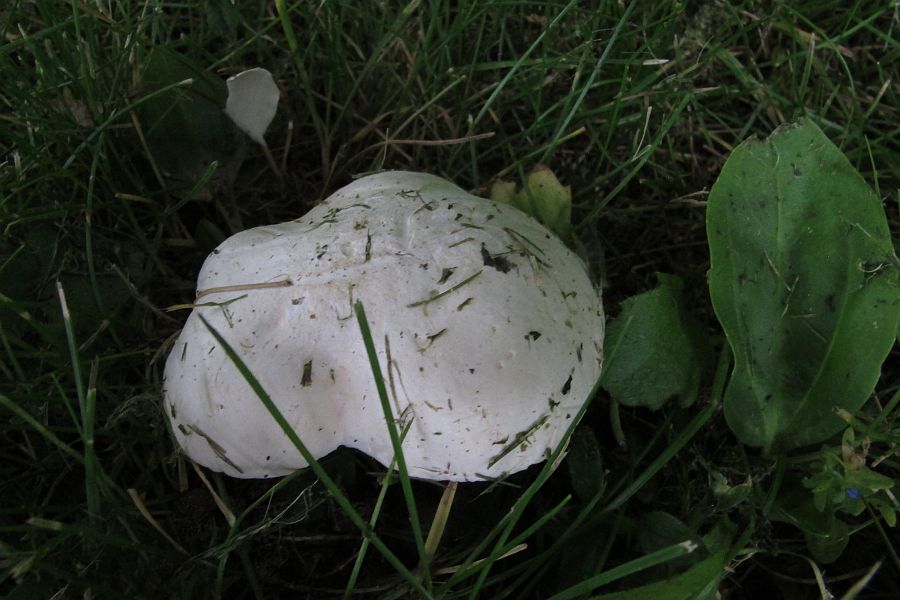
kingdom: Fungi
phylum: Basidiomycota
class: Agaricomycetes
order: Agaricales
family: Entolomataceae
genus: Clitopilus
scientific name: Clitopilus prunulus
